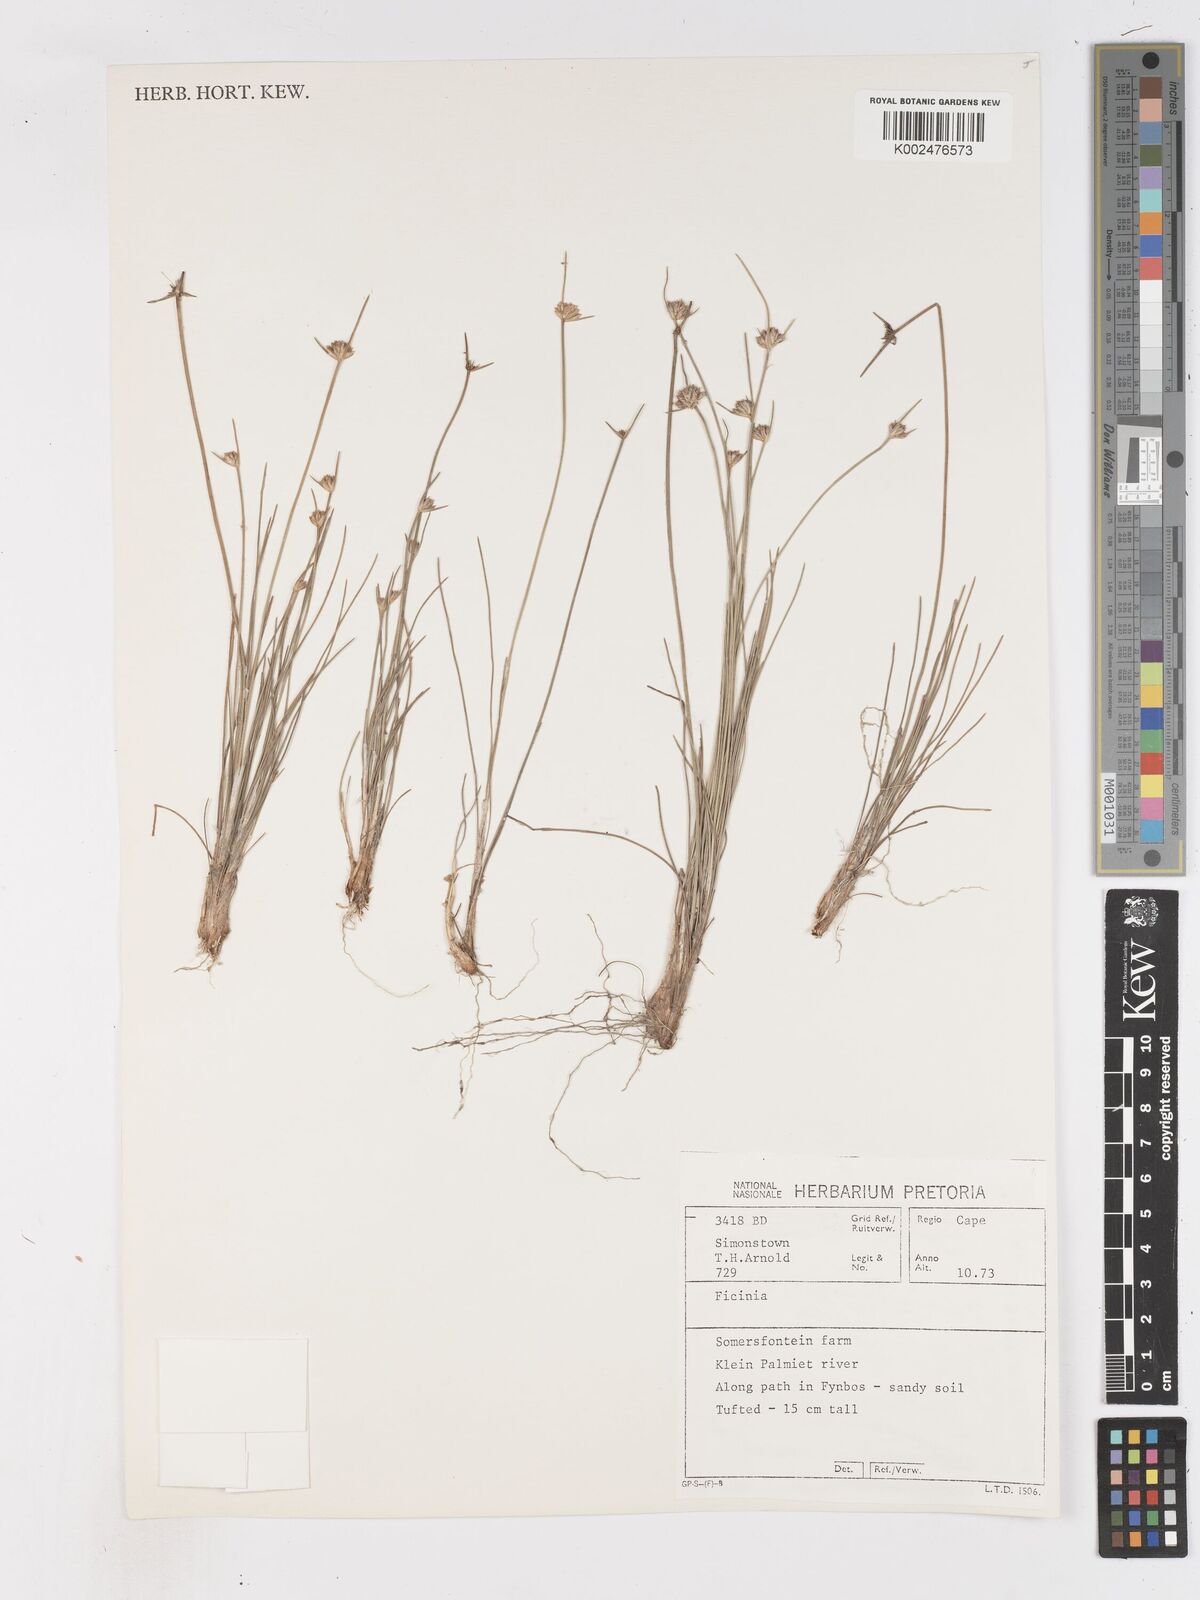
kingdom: Plantae
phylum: Tracheophyta
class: Liliopsida
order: Poales
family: Cyperaceae
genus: Ficinia
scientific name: Ficinia
